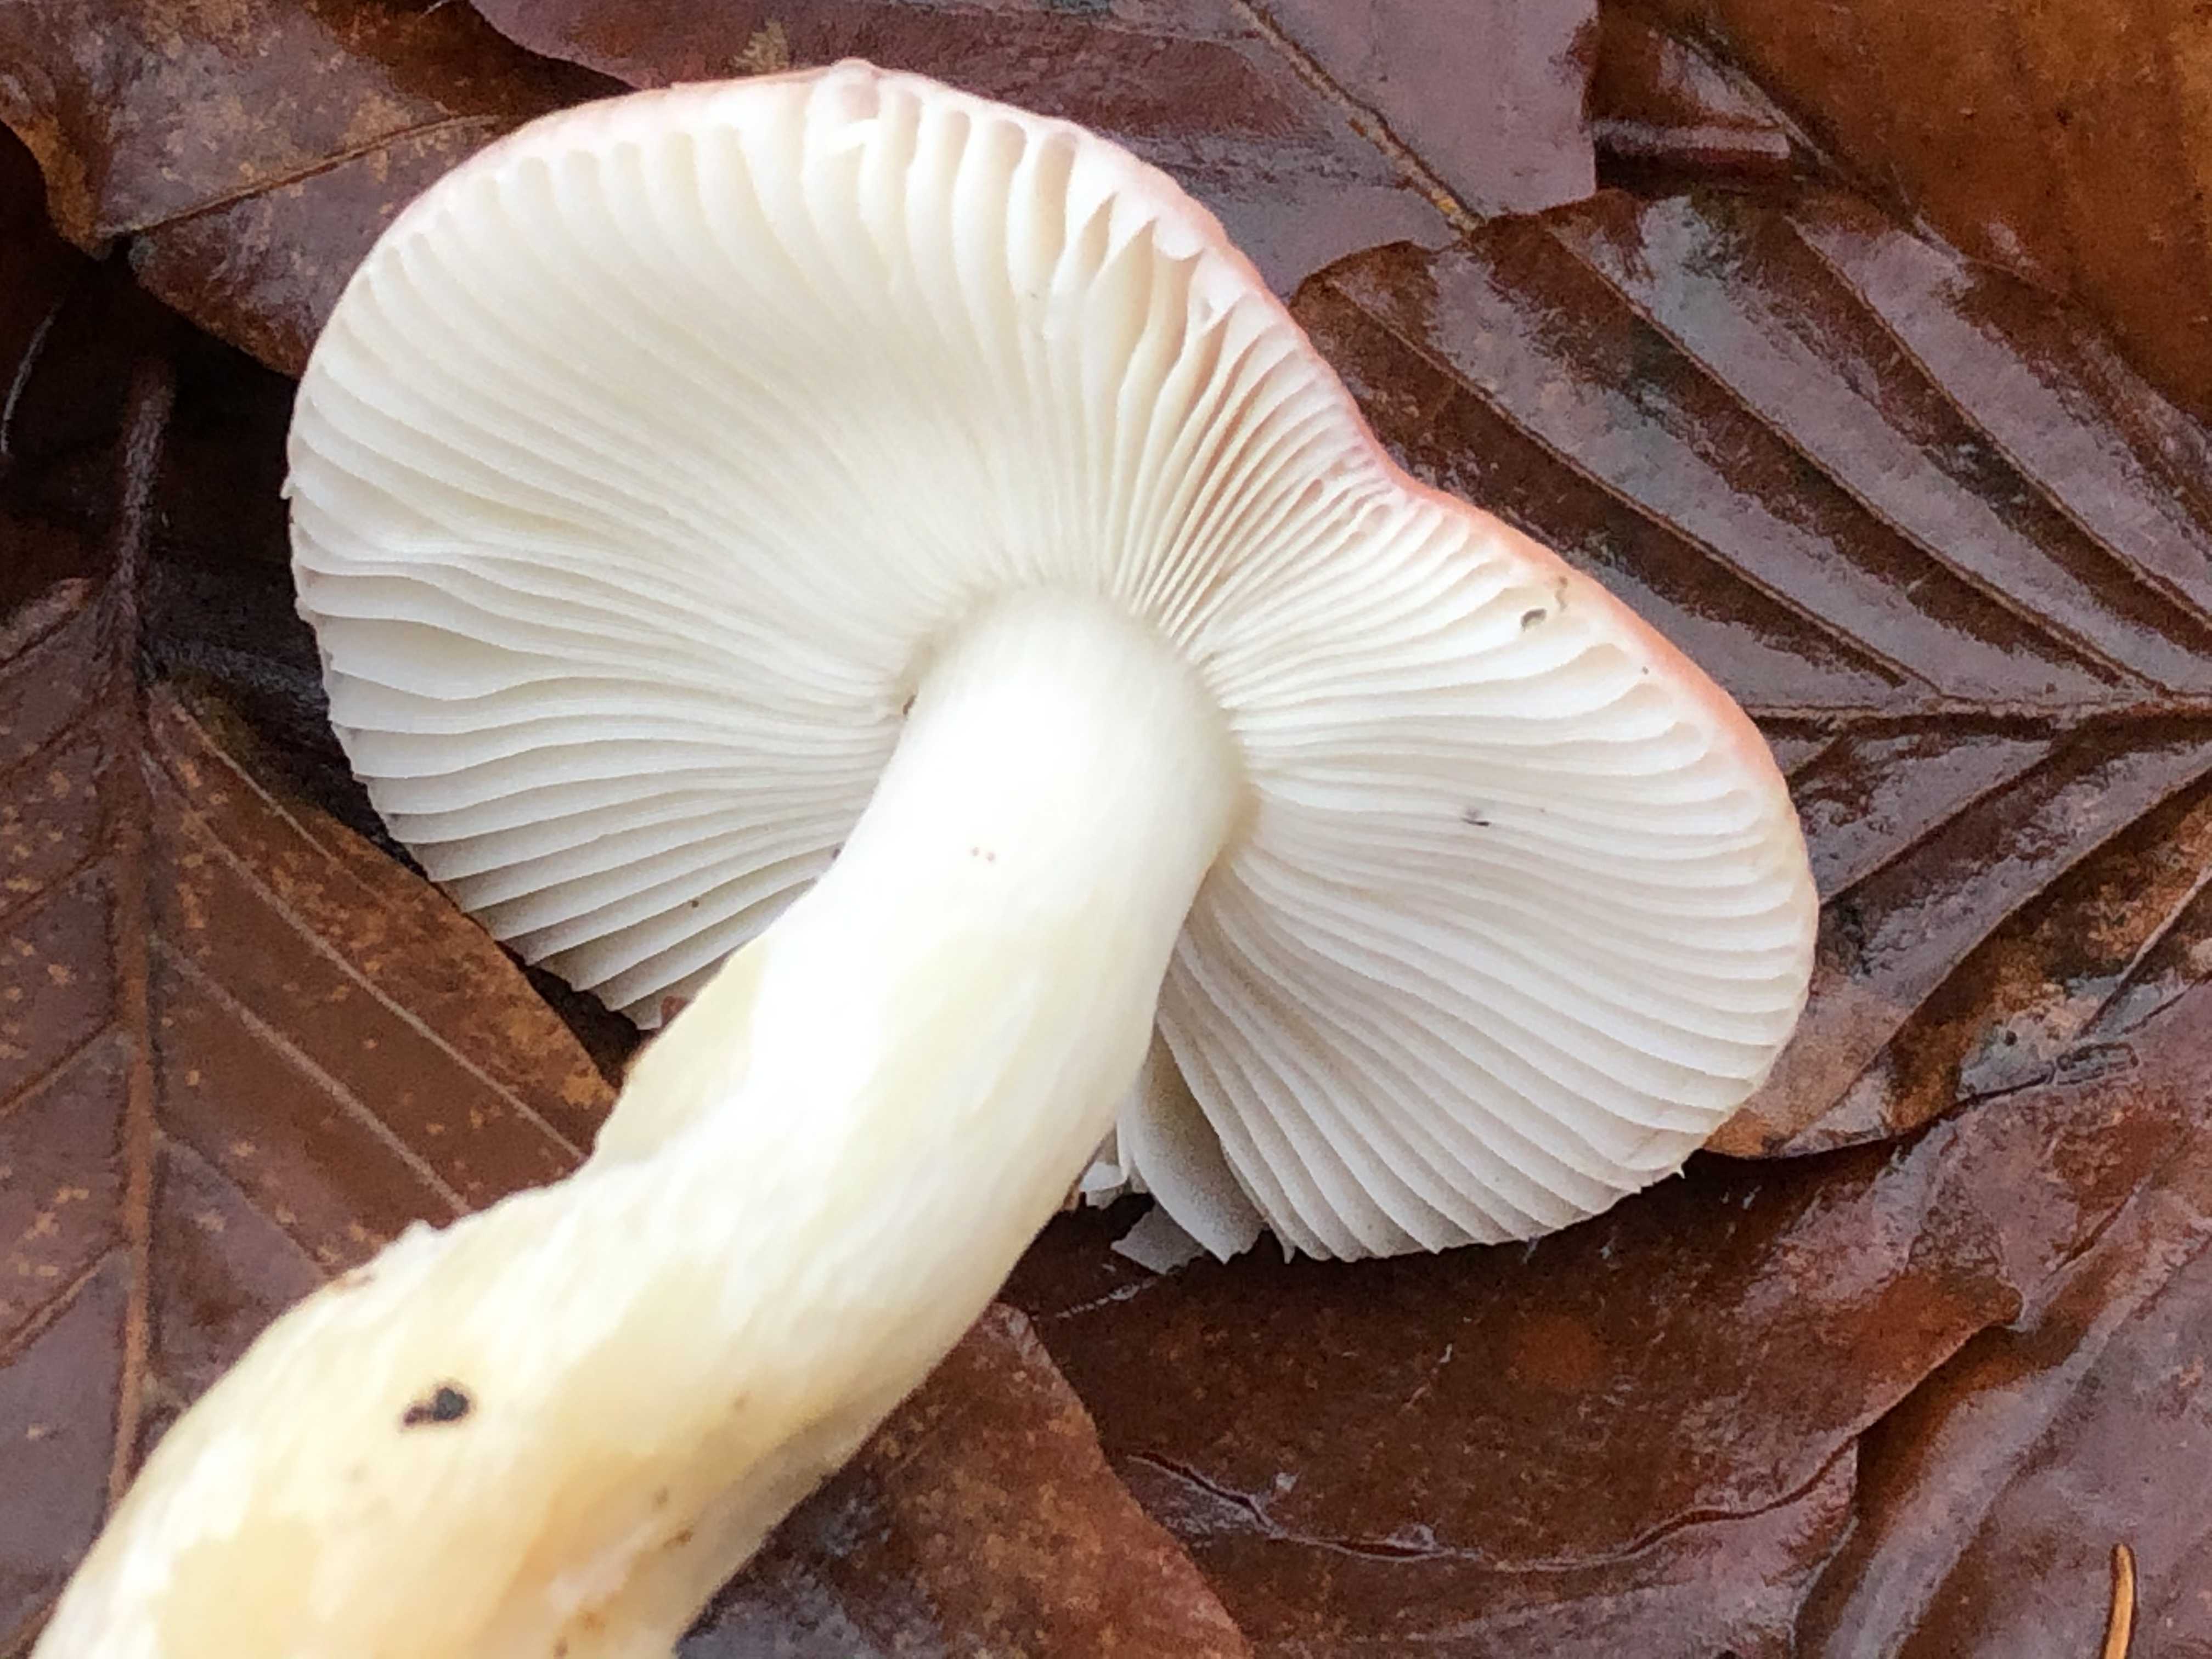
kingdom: Fungi
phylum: Basidiomycota
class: Agaricomycetes
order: Russulales
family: Russulaceae
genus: Russula
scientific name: Russula silvestris
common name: mellemstor gift-skørhat
